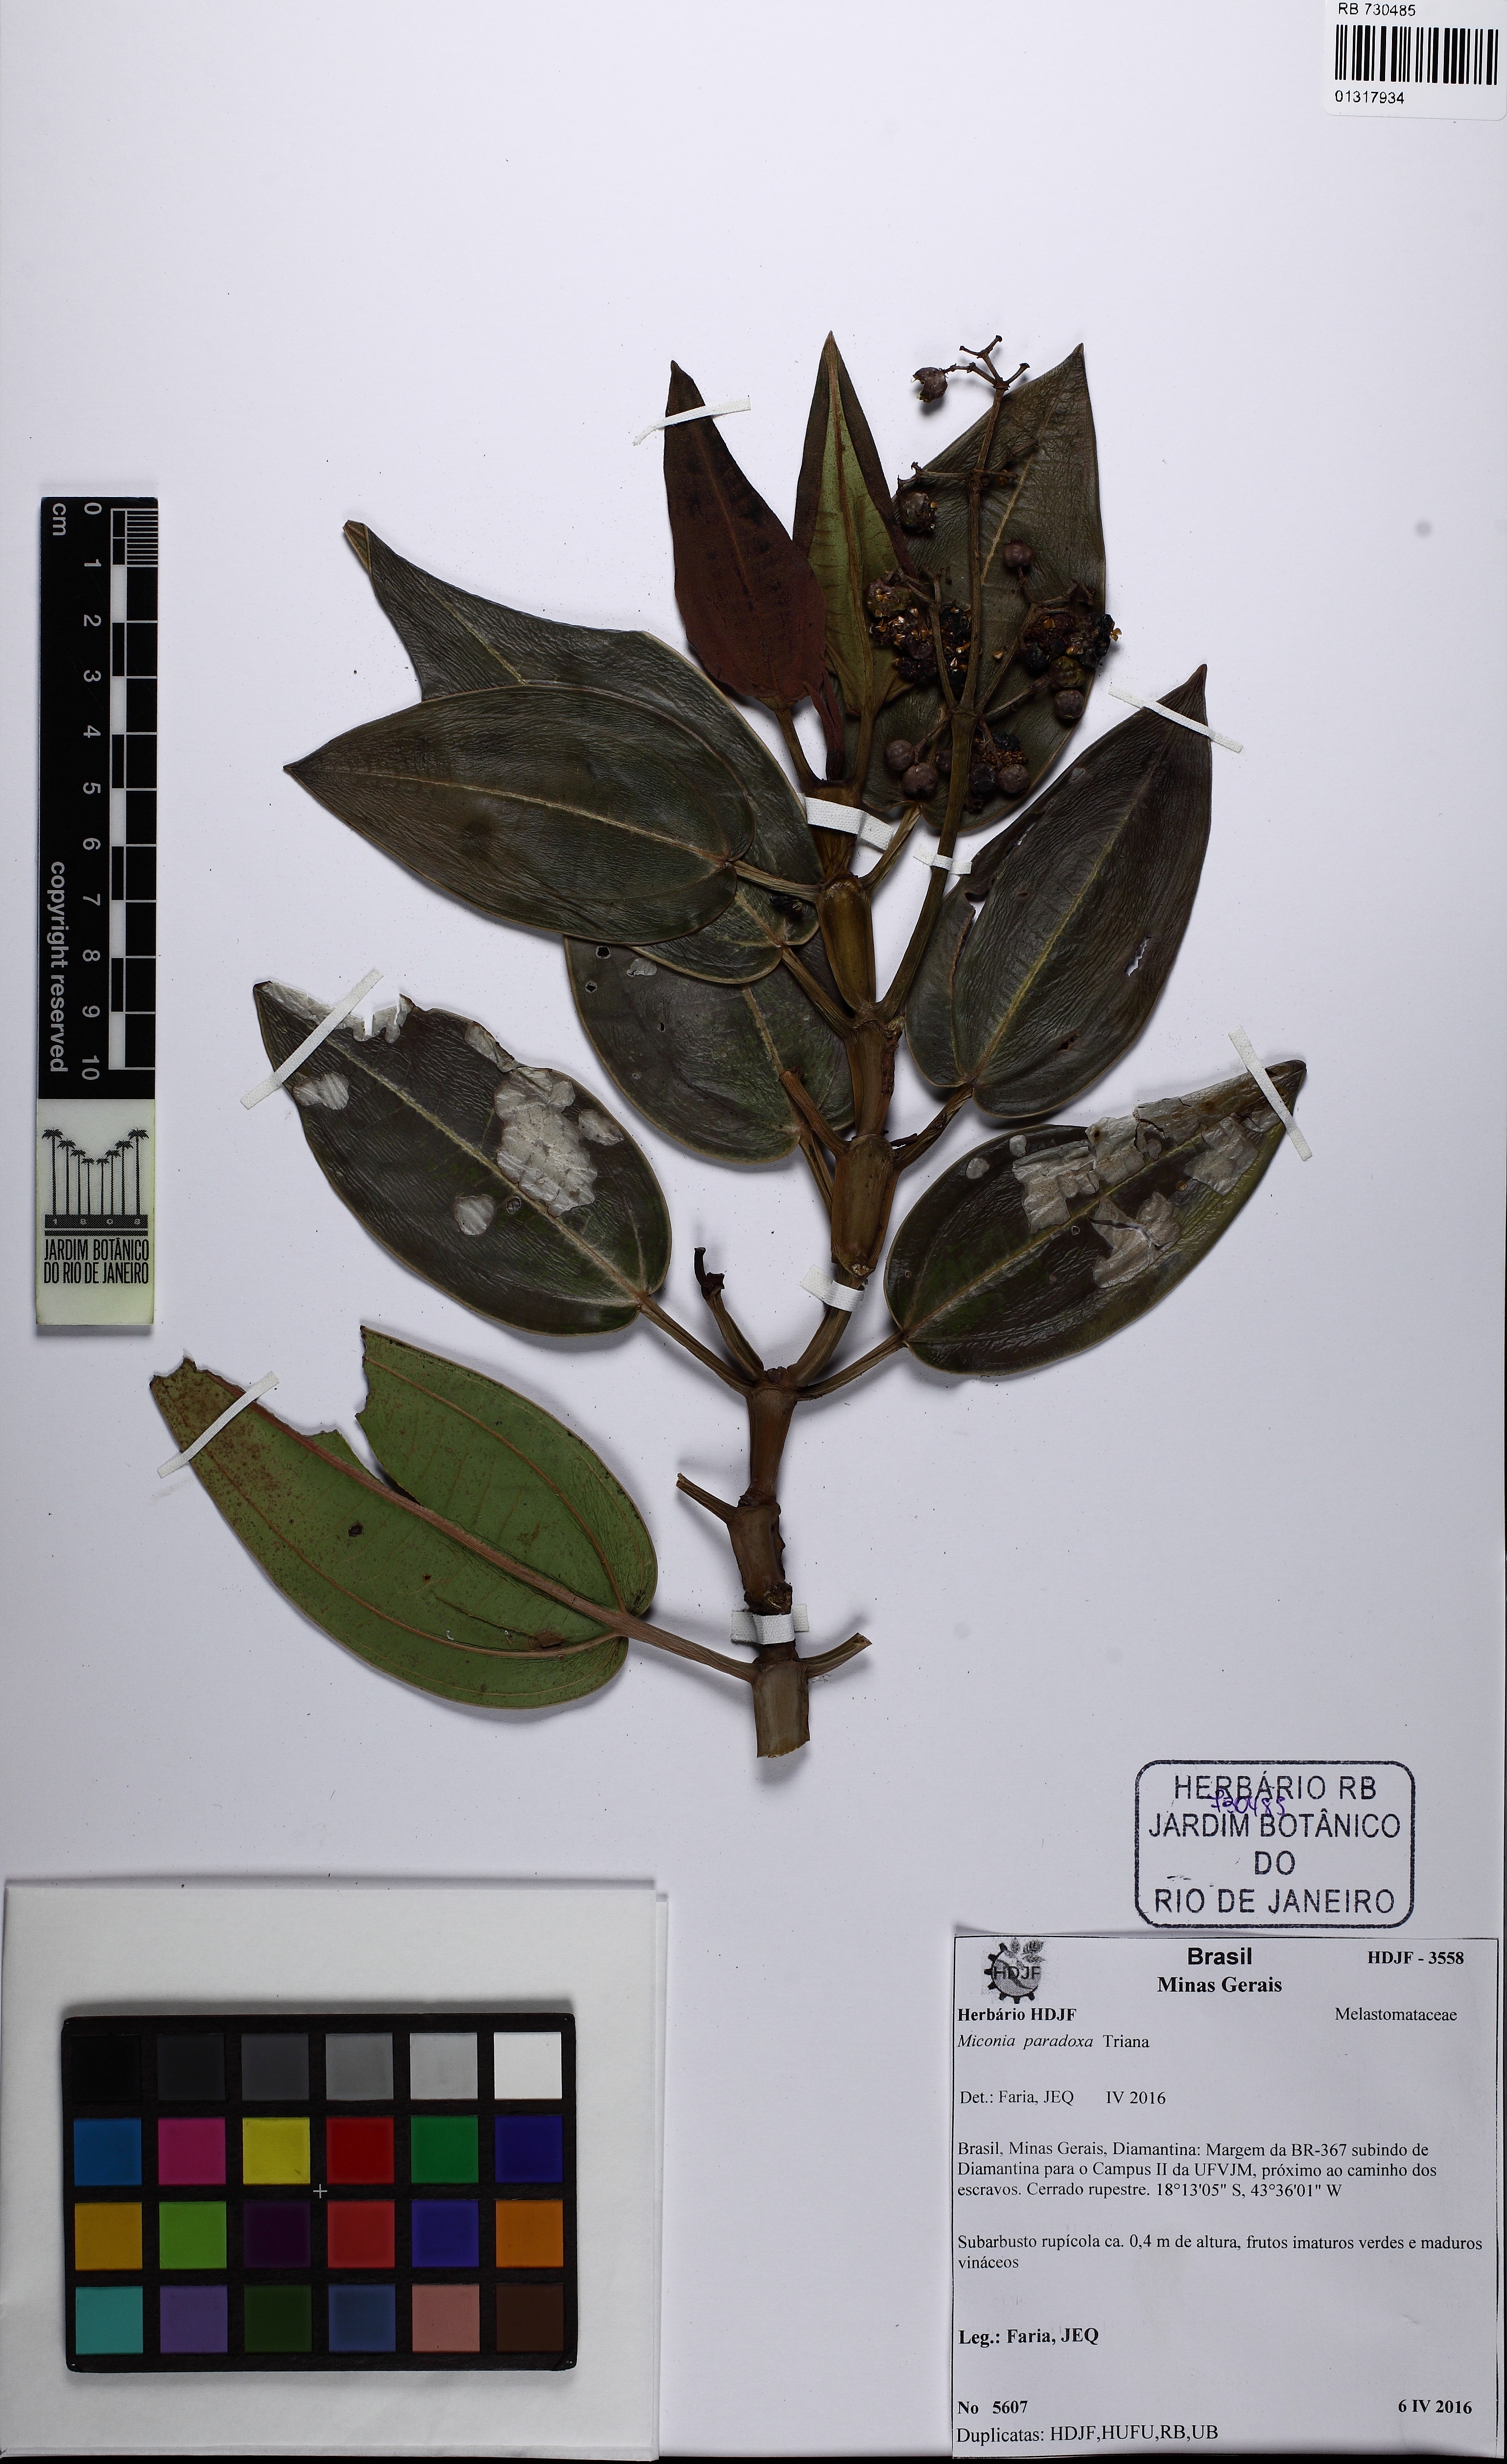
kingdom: Plantae
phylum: Tracheophyta
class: Magnoliopsida
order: Myrtales
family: Melastomataceae
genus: Miconia
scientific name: Miconia paradoxa
